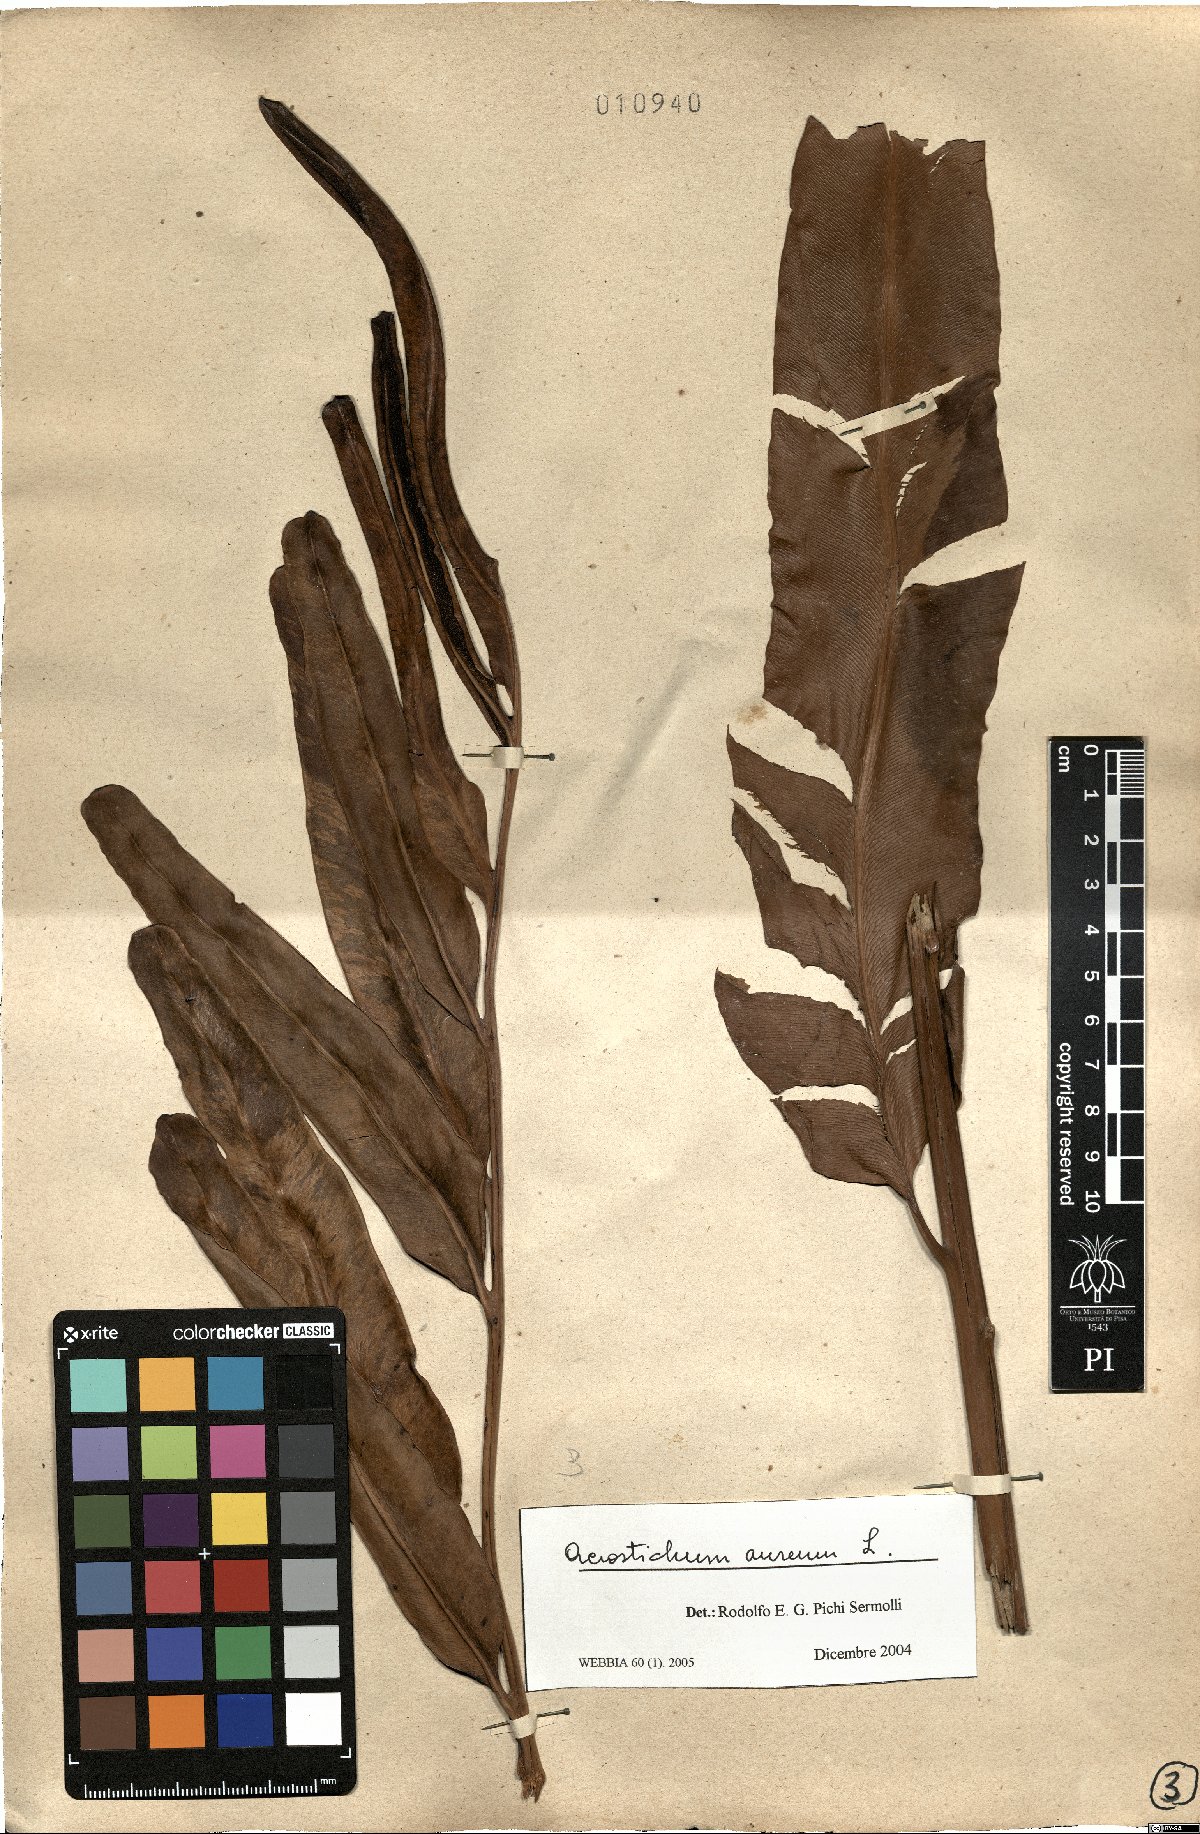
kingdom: Plantae
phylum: Tracheophyta
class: Polypodiopsida
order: Polypodiales
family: Pteridaceae
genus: Acrostichum
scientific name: Acrostichum aureum
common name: Leather fern
